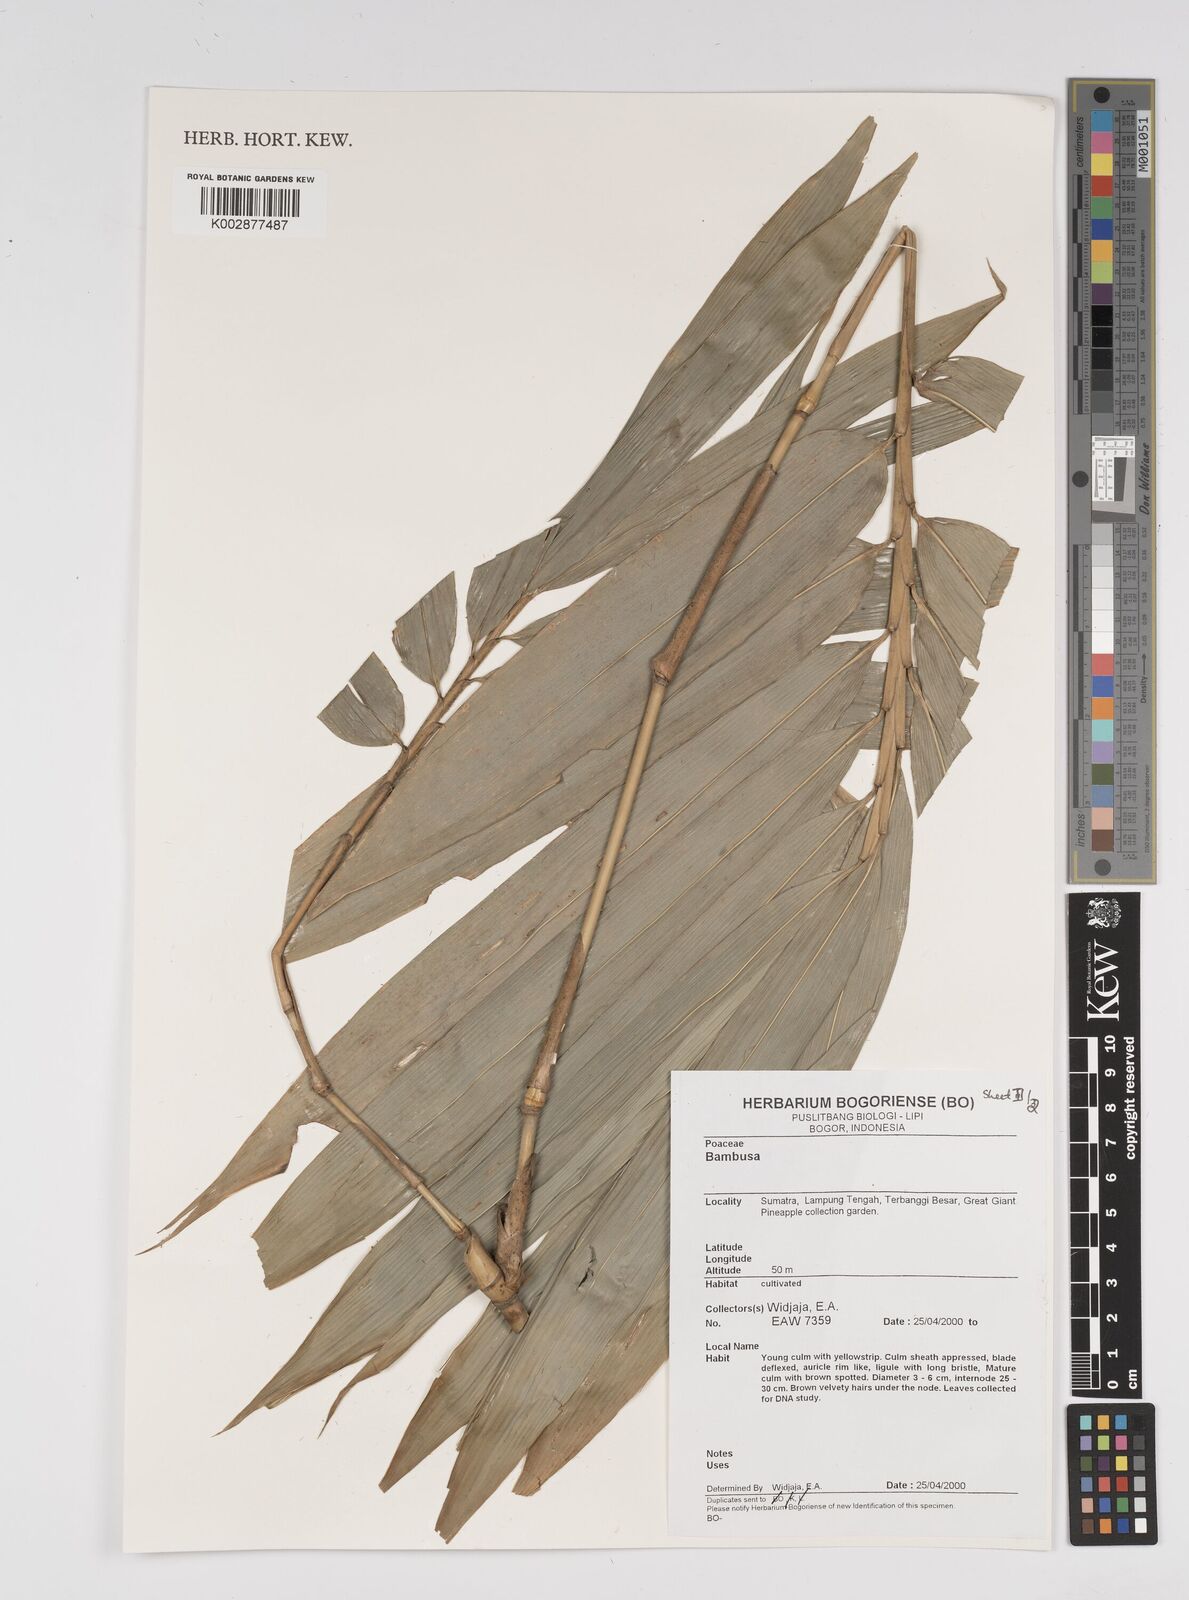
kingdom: Plantae
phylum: Tracheophyta
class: Liliopsida
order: Poales
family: Poaceae
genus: Bambusa
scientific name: Bambusa
